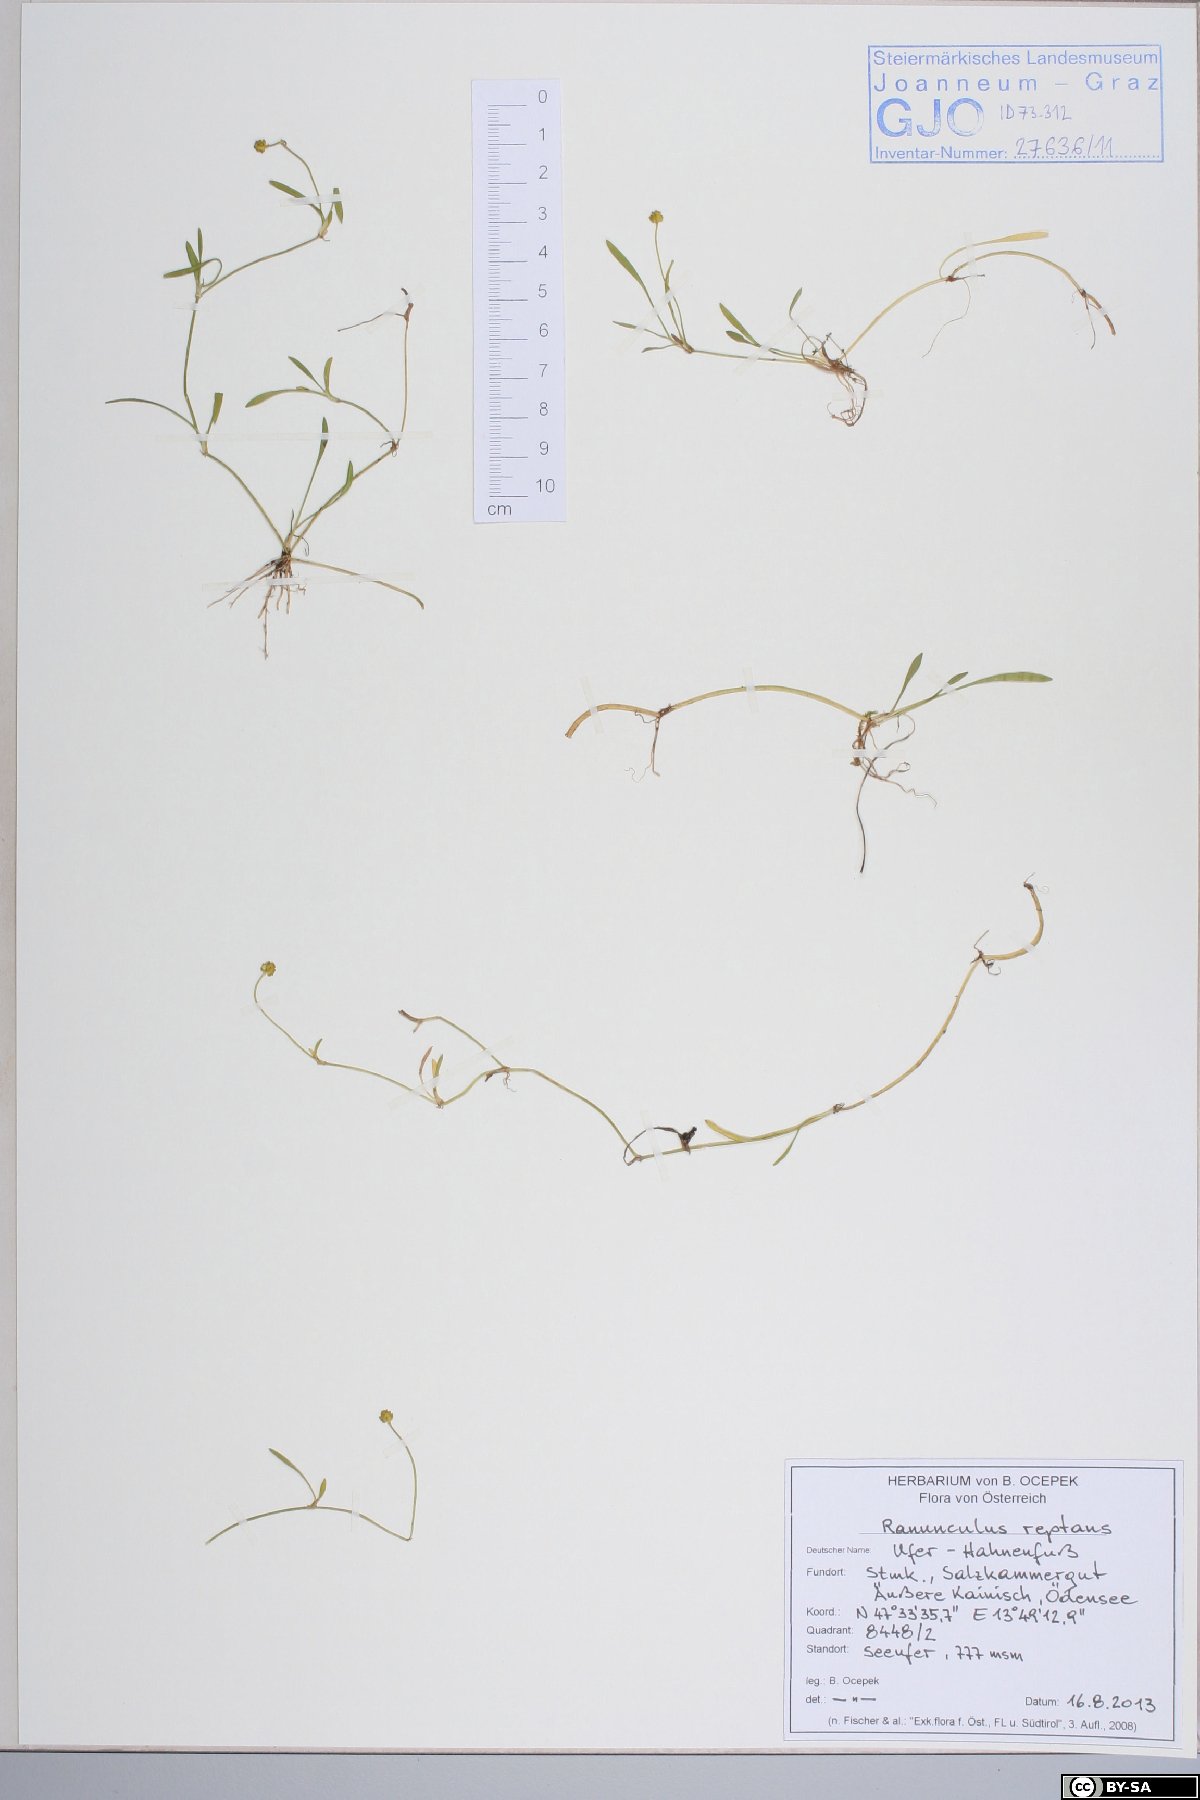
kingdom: Plantae
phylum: Tracheophyta
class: Magnoliopsida
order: Ranunculales
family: Ranunculaceae
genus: Ranunculus
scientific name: Ranunculus reptans
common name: Creeping spearwort
